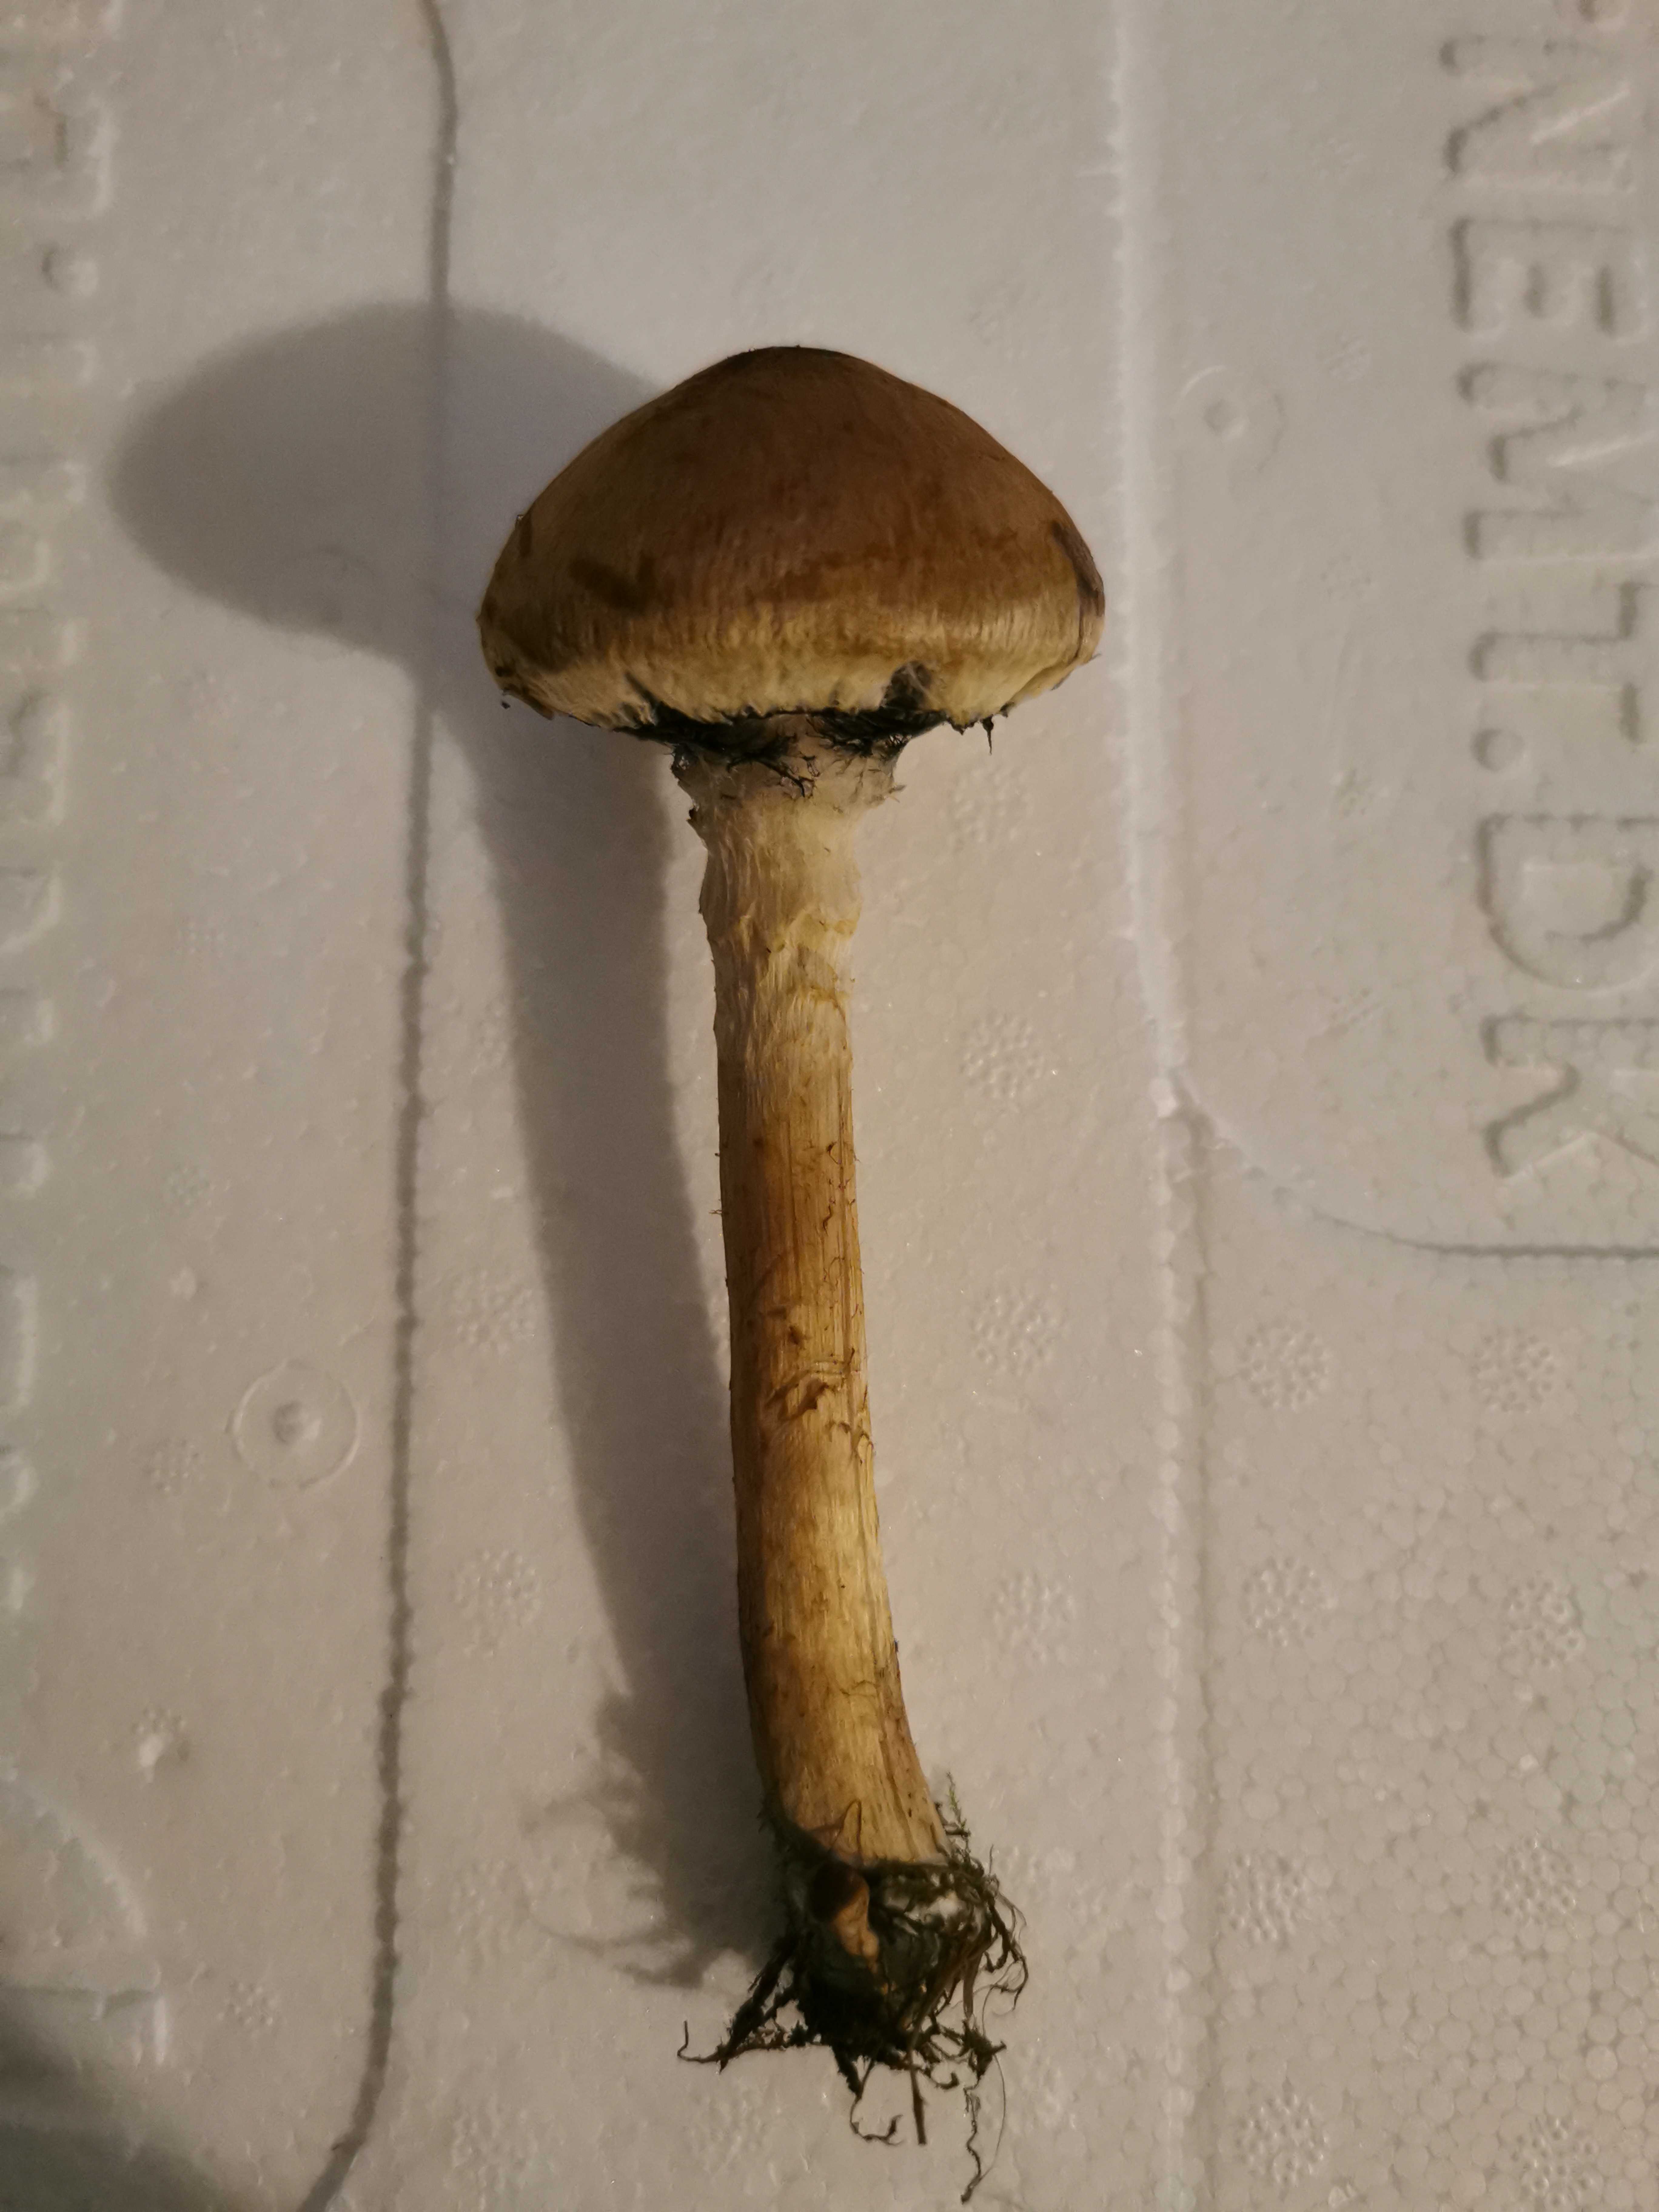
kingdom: Fungi
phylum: Basidiomycota
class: Agaricomycetes
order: Agaricales
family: Psathyrellaceae
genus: Lacrymaria
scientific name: Lacrymaria lacrymabunda
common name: grædende mørkhat
